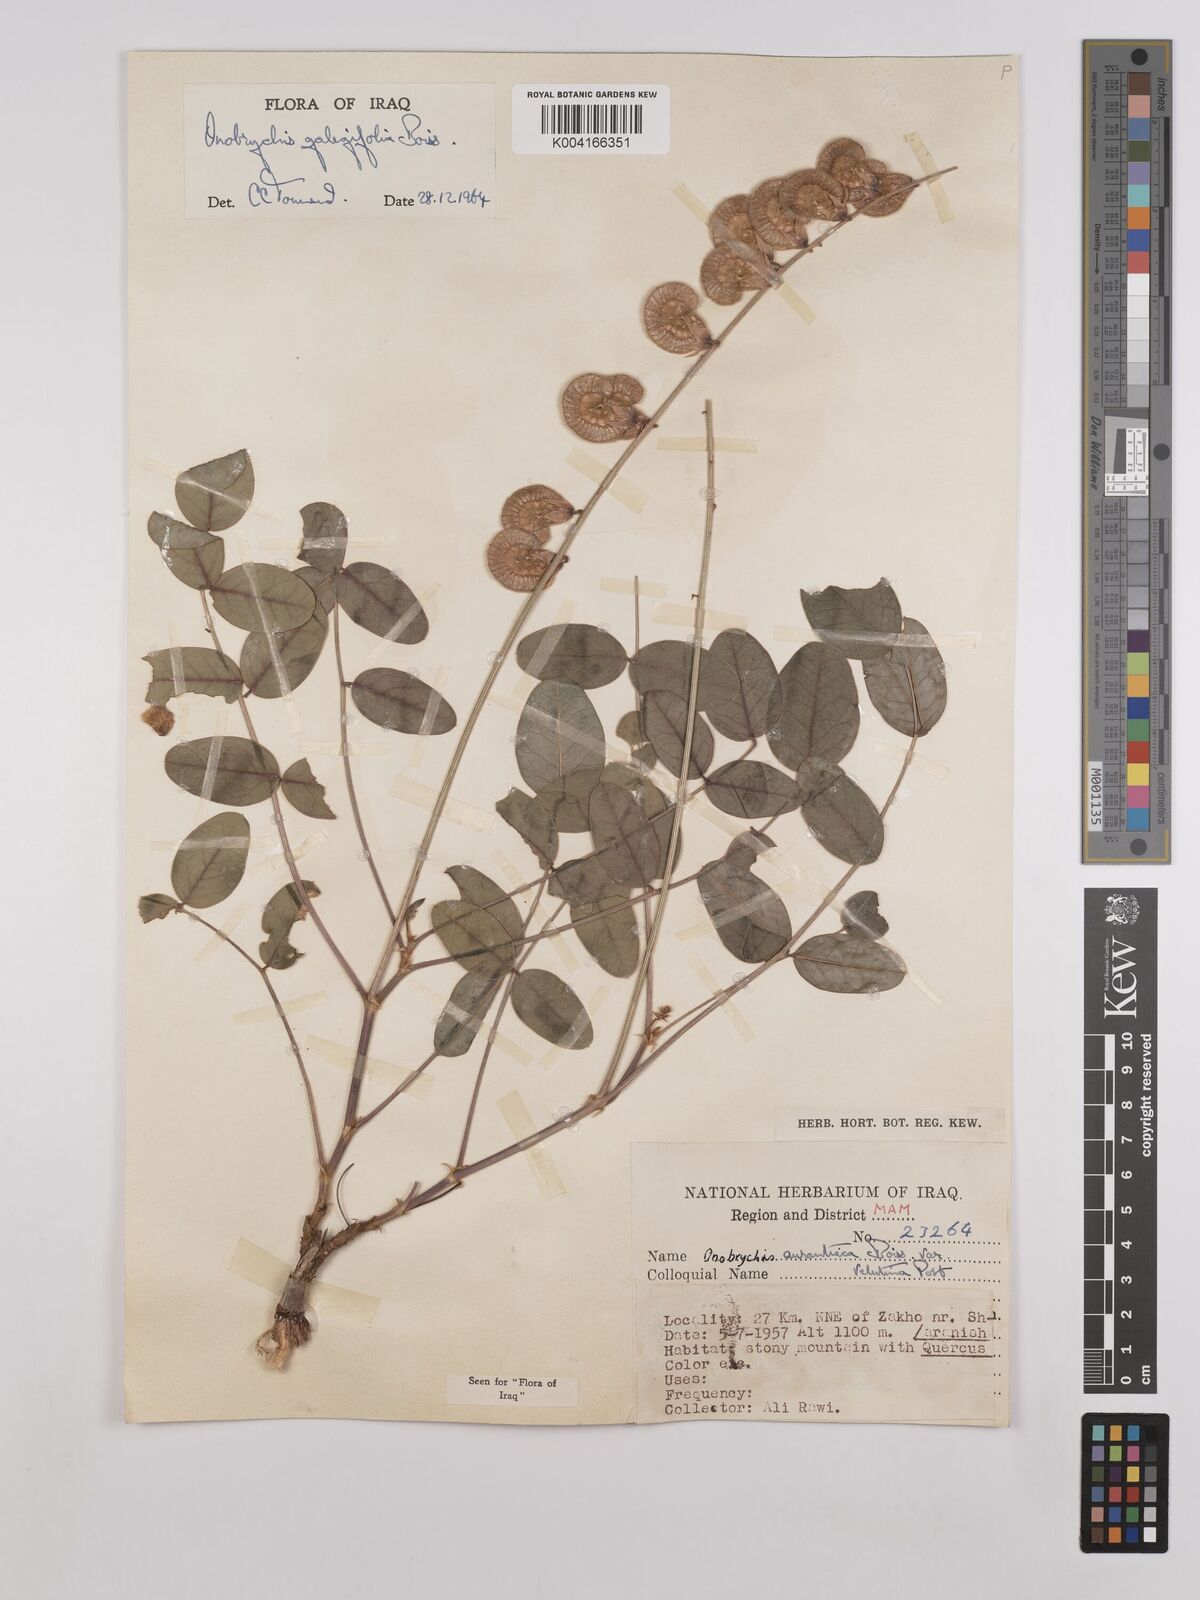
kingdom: Plantae
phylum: Tracheophyta
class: Magnoliopsida
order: Fabales
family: Fabaceae
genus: Onobrychis
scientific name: Onobrychis galegifolia
